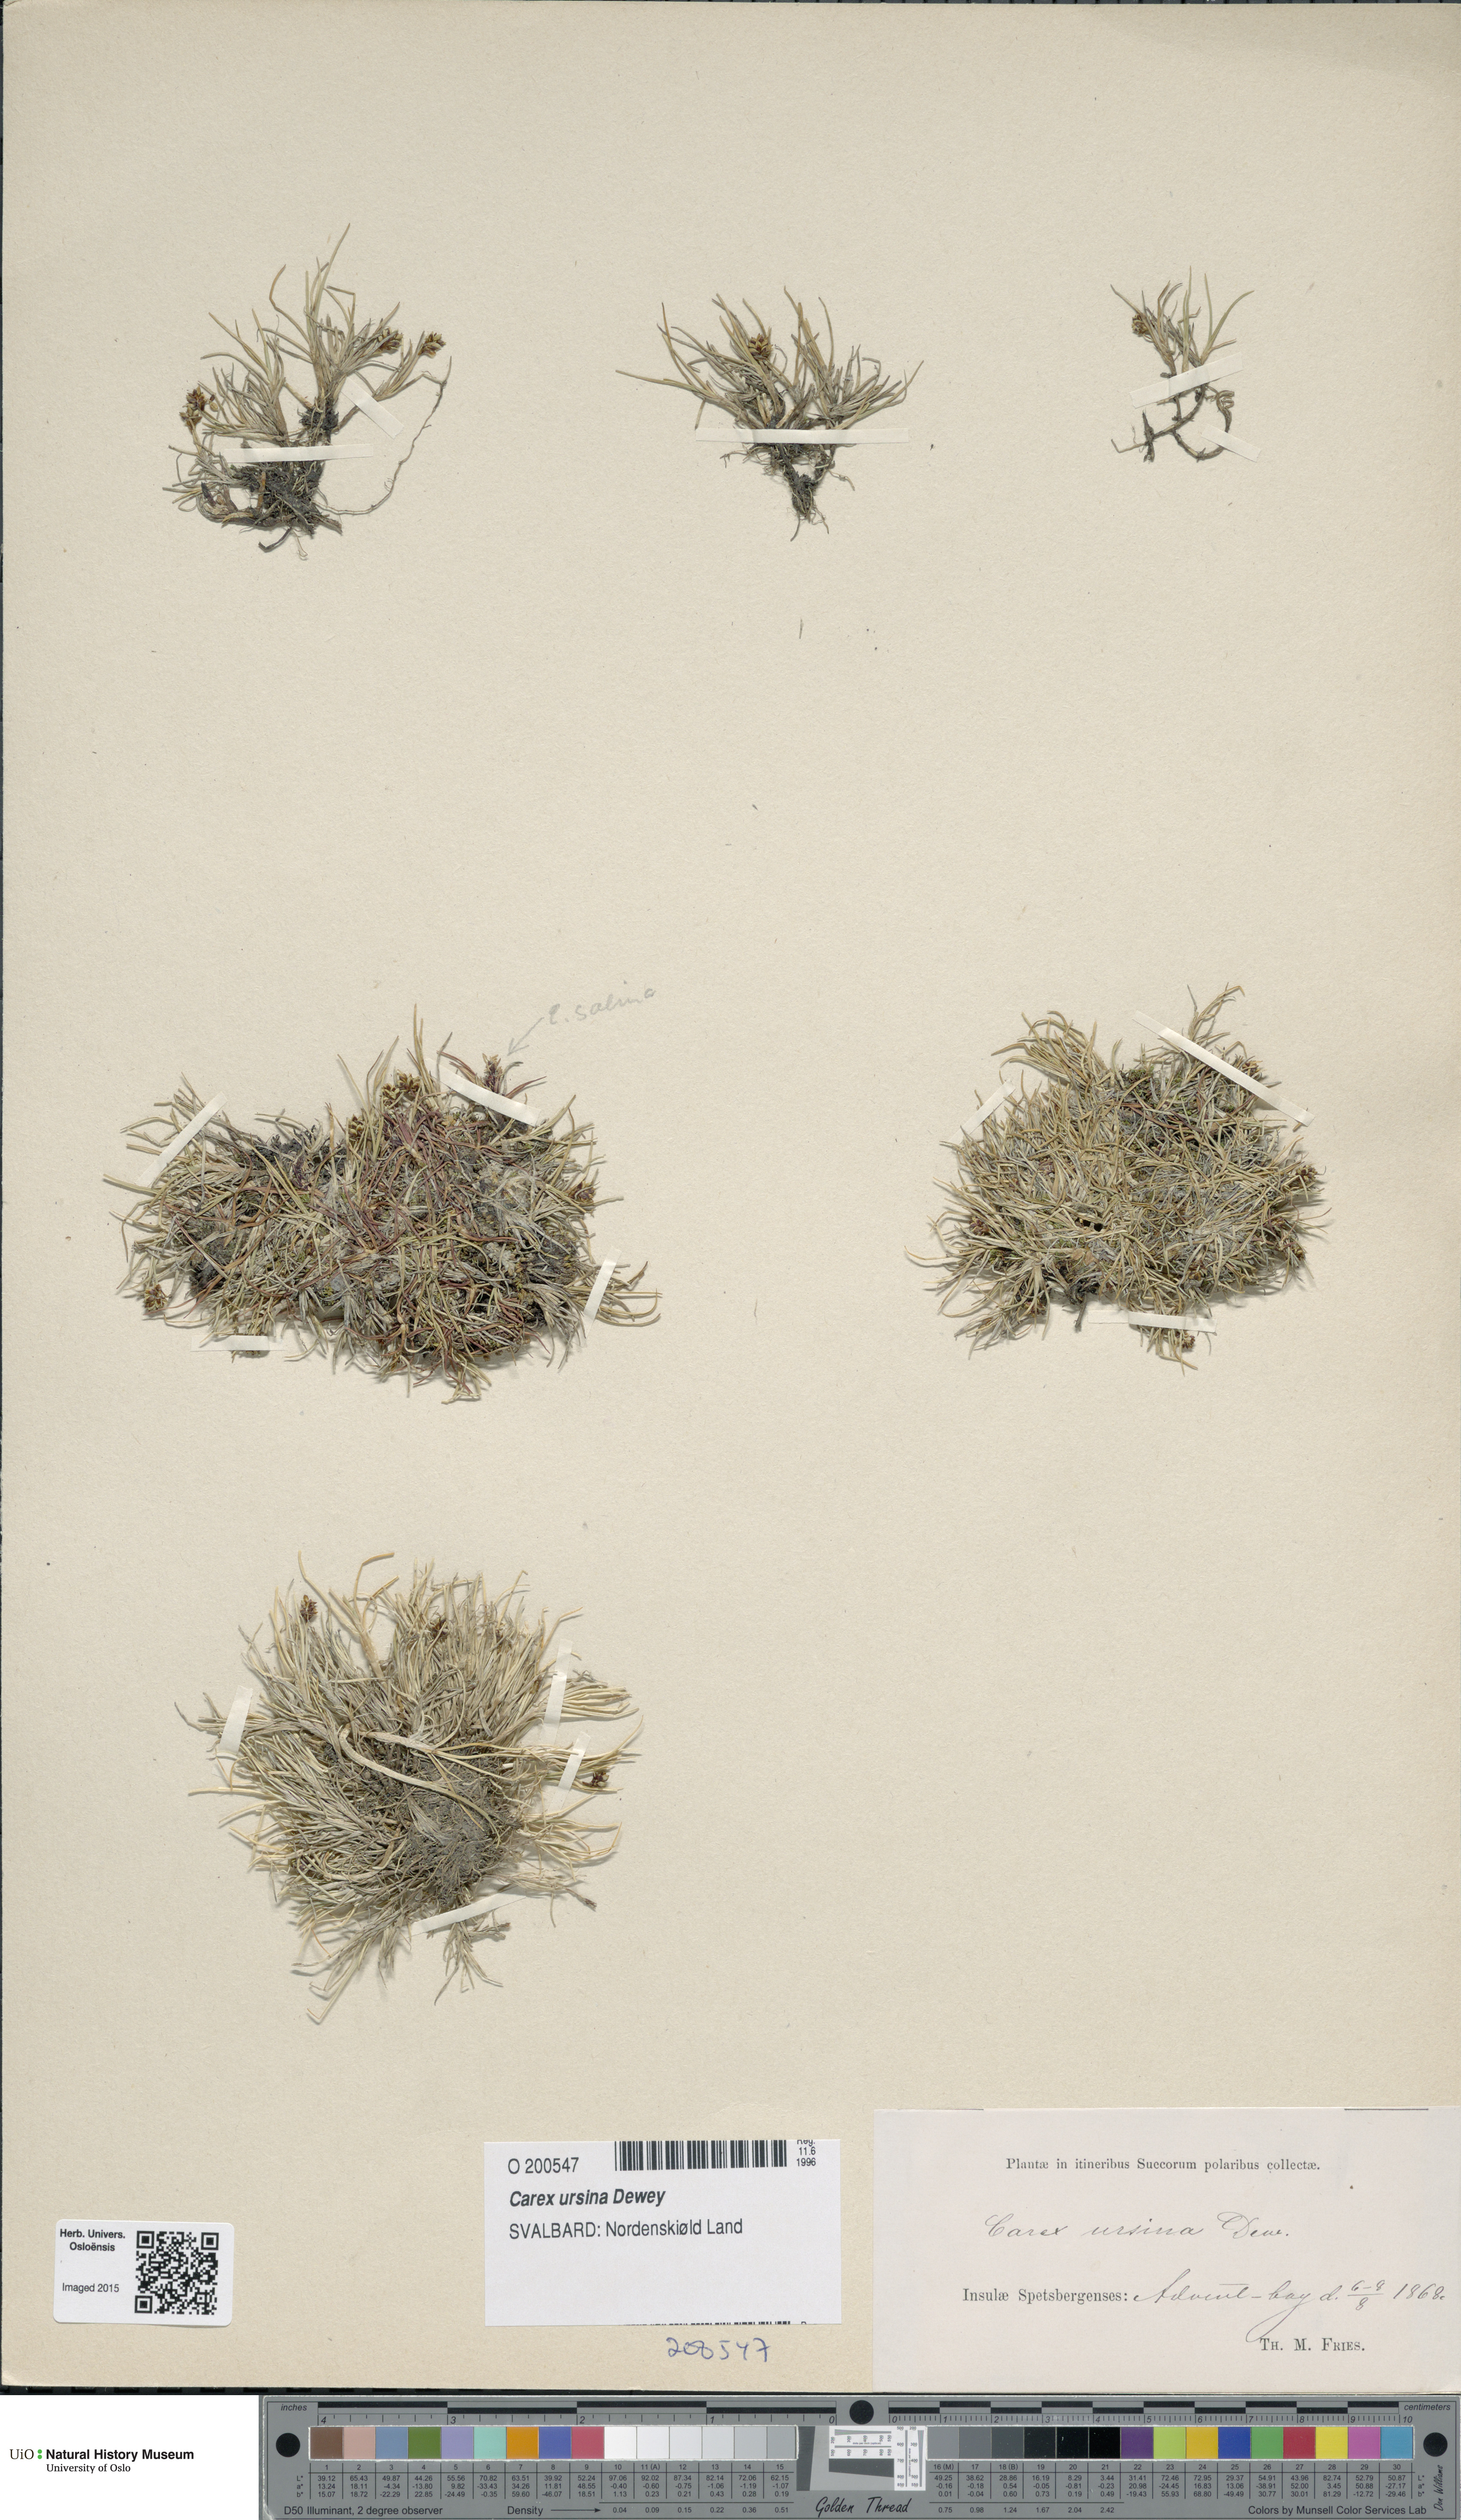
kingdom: Plantae
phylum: Tracheophyta
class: Liliopsida
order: Poales
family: Cyperaceae
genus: Carex
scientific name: Carex ursina
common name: Bear sedge
